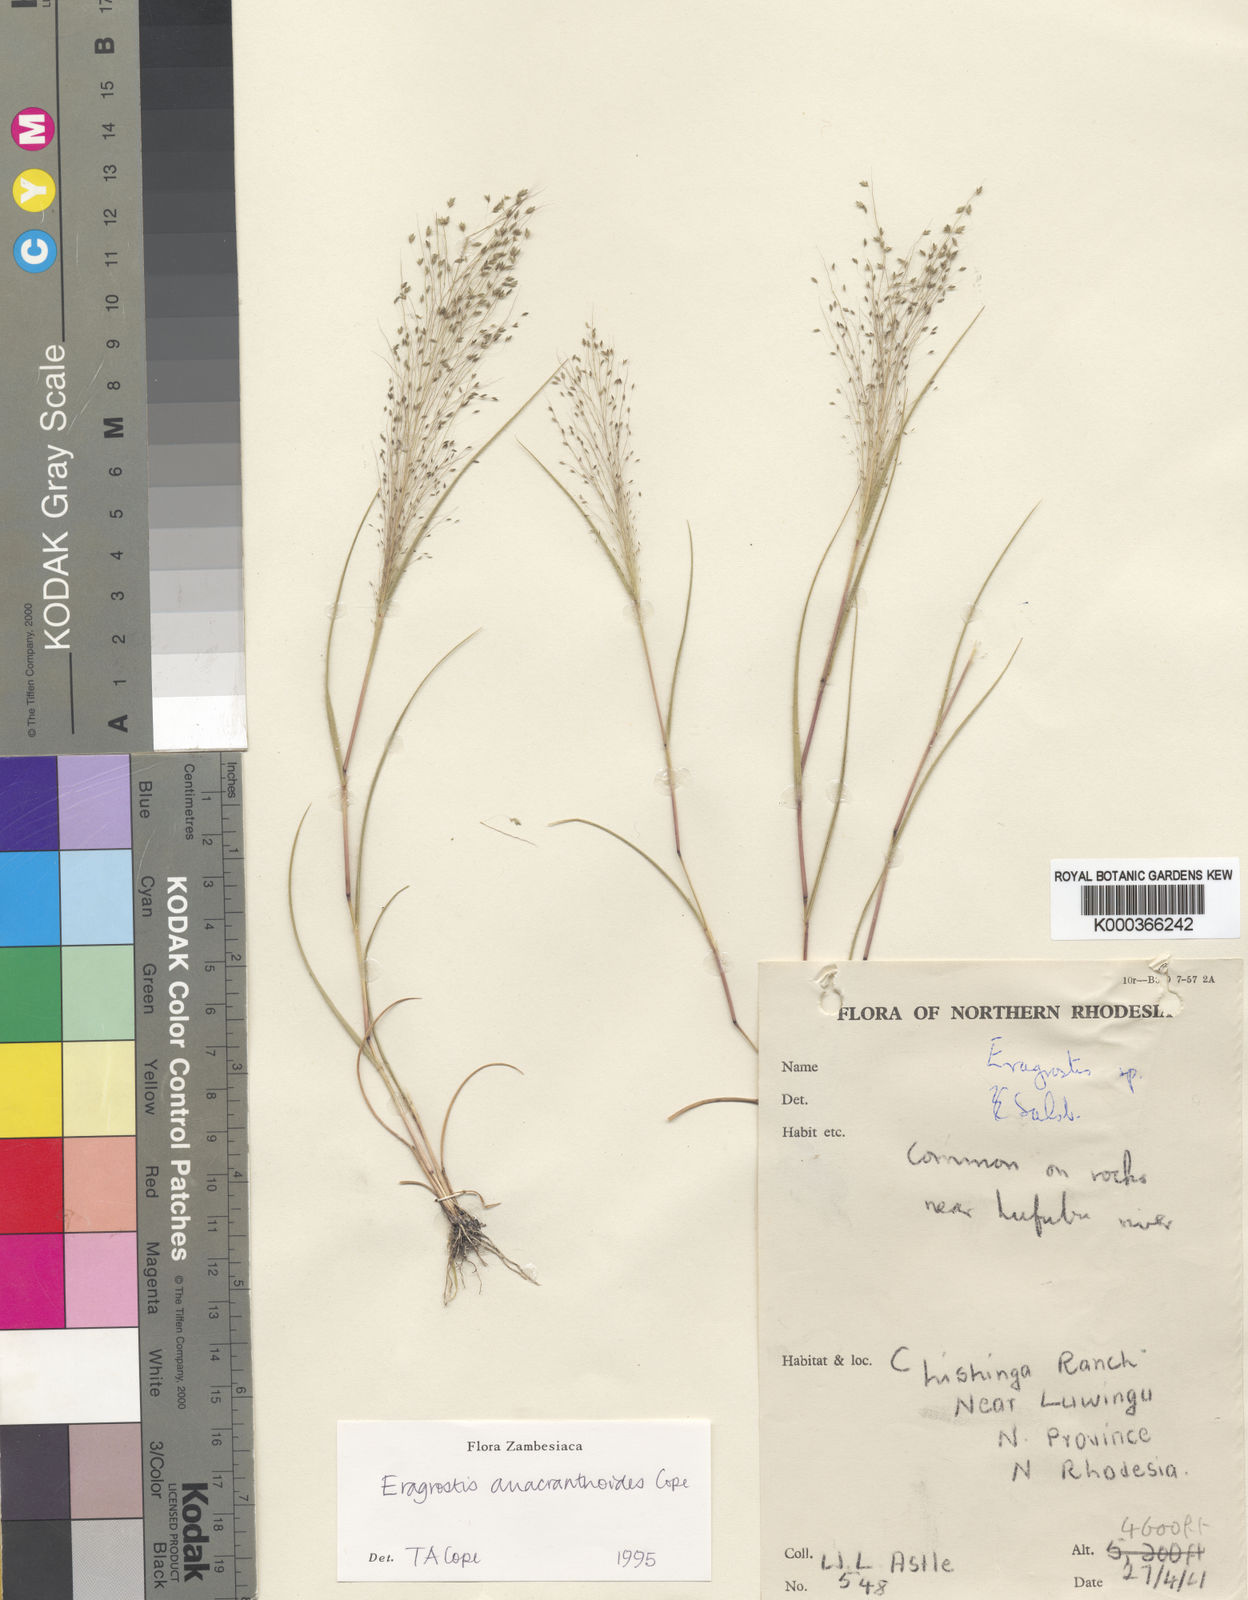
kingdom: Plantae
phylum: Tracheophyta
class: Liliopsida
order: Poales
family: Poaceae
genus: Eragrostis
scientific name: Eragrostis anacranthoides
